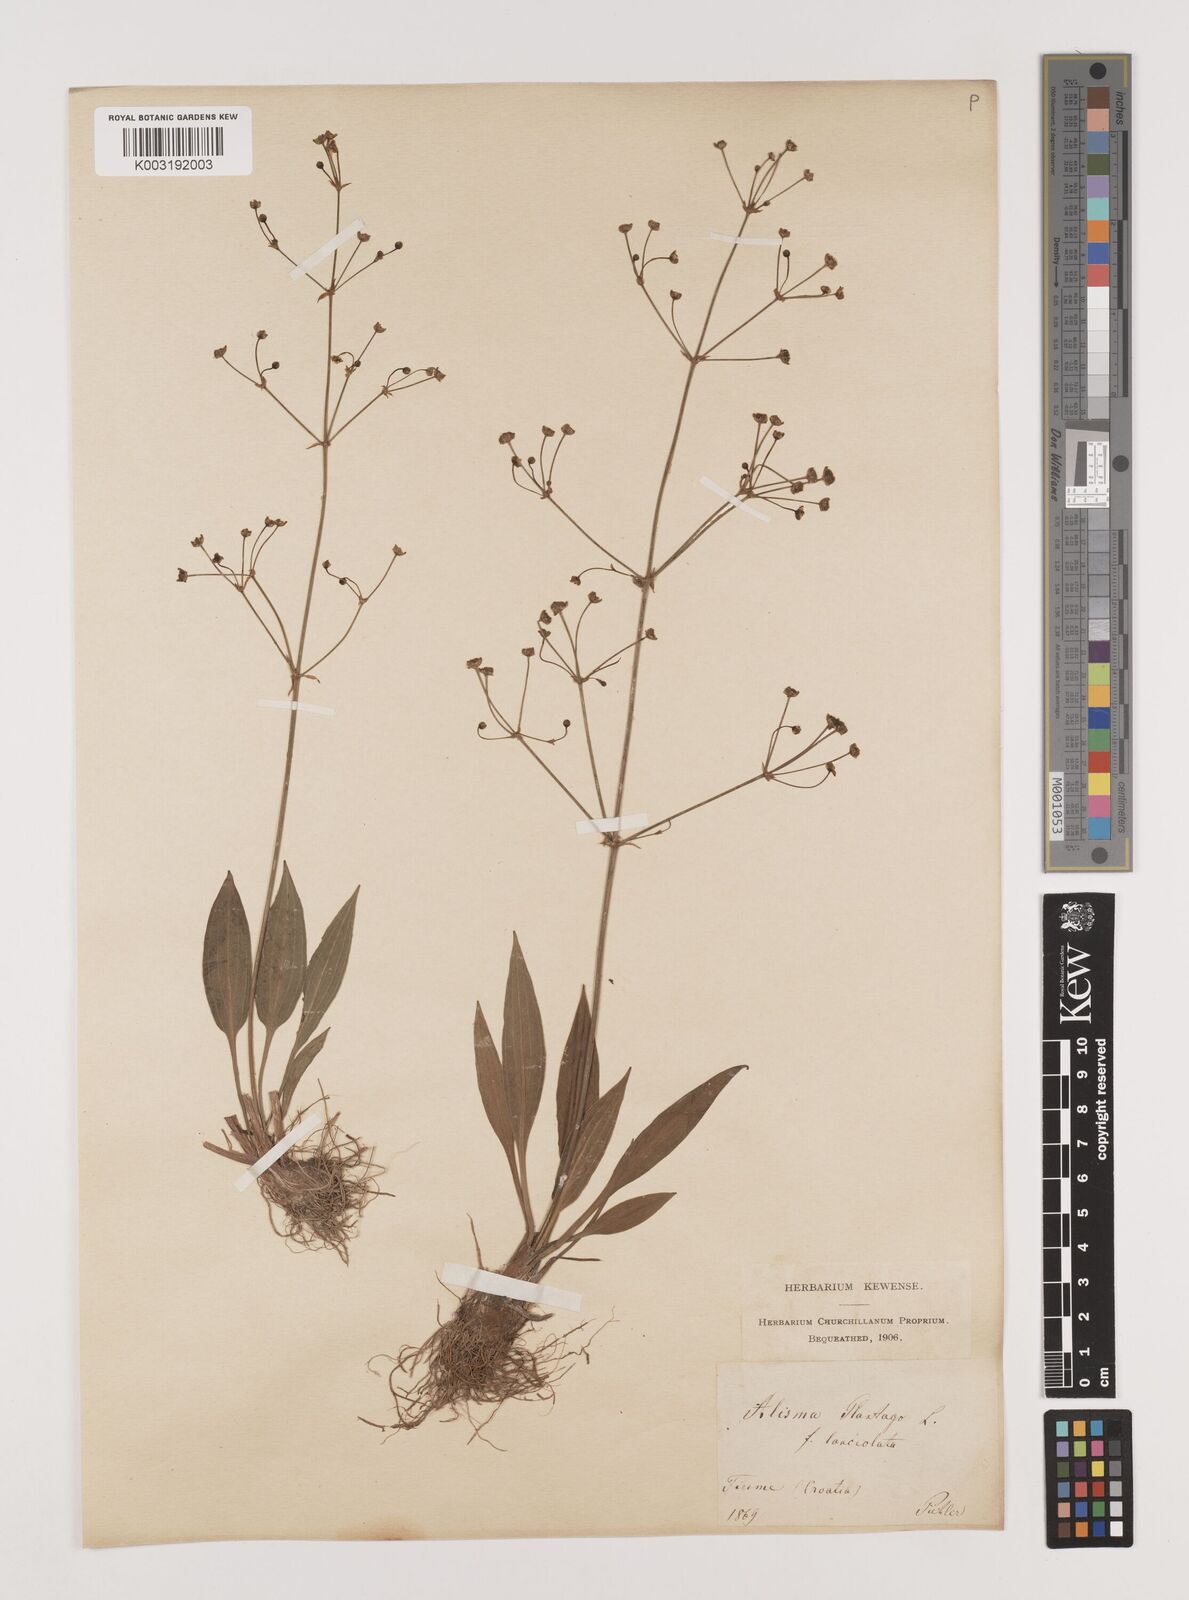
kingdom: Plantae
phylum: Tracheophyta
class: Liliopsida
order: Alismatales
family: Alismataceae
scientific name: Alismataceae
